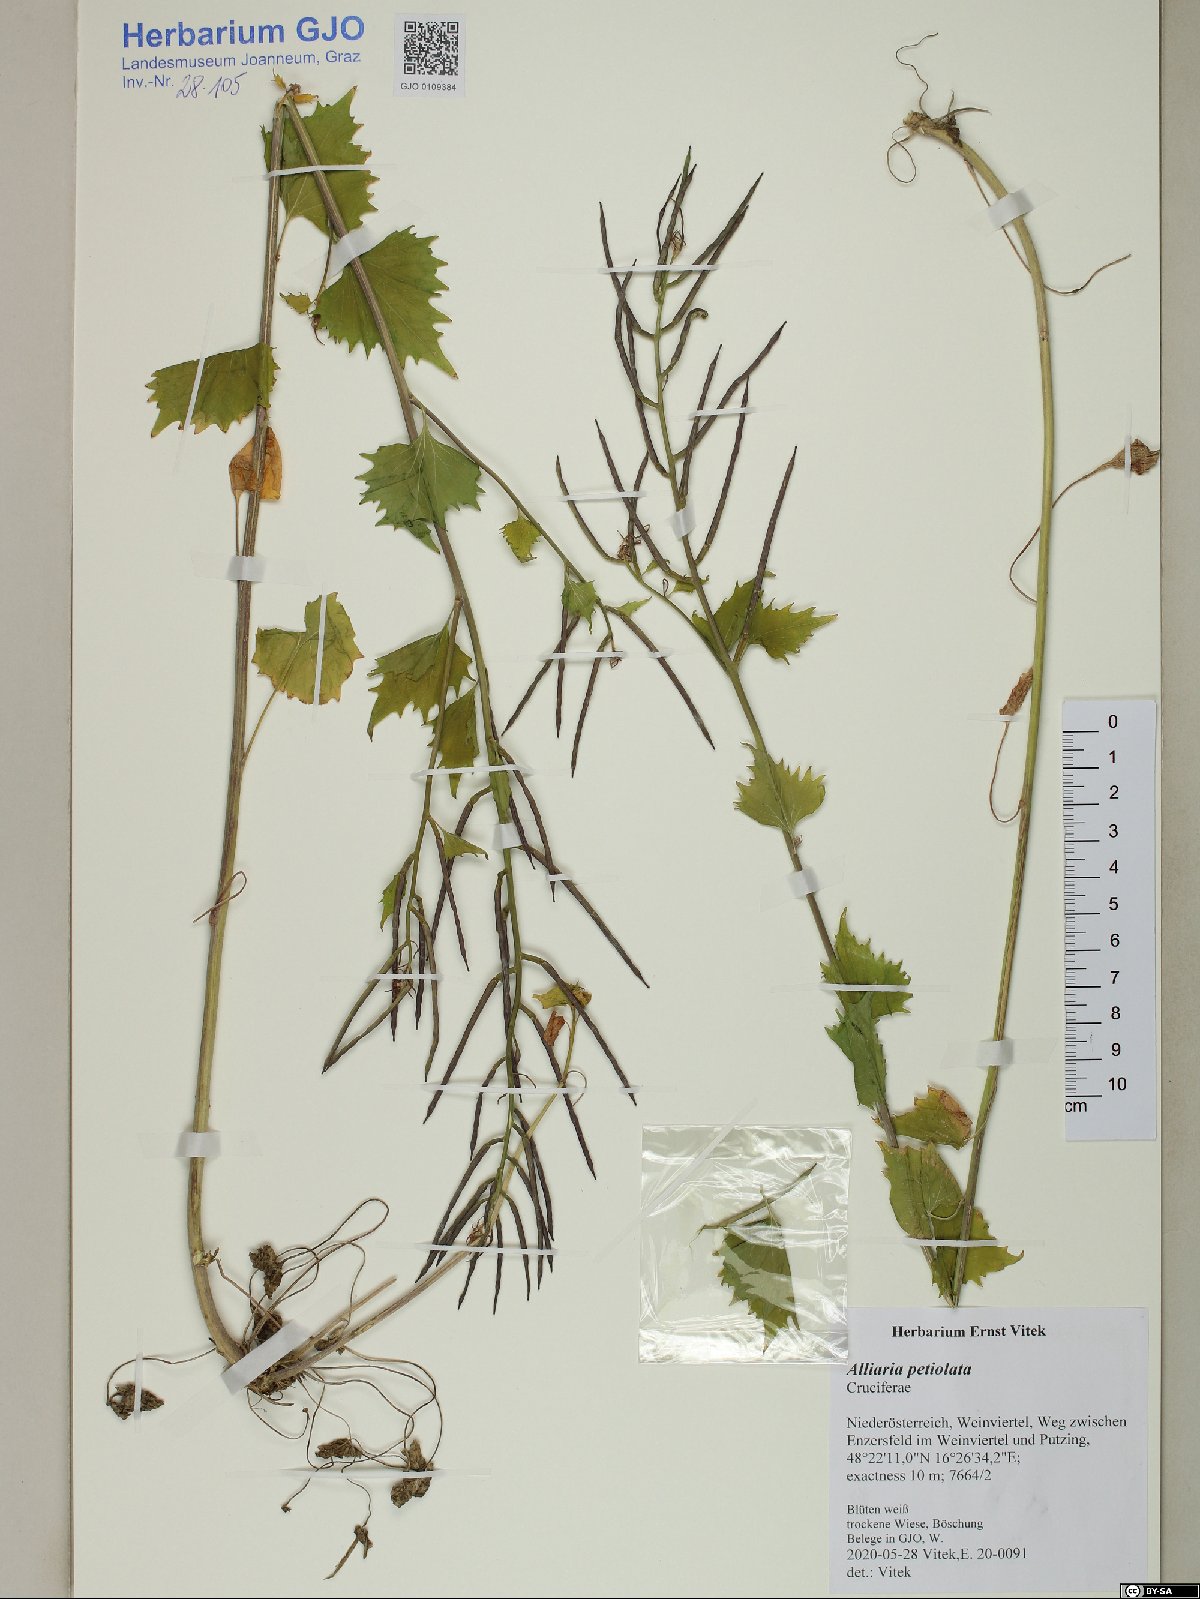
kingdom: Plantae
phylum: Tracheophyta
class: Magnoliopsida
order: Brassicales
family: Brassicaceae
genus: Alliaria
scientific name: Alliaria petiolata
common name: Garlic mustard
